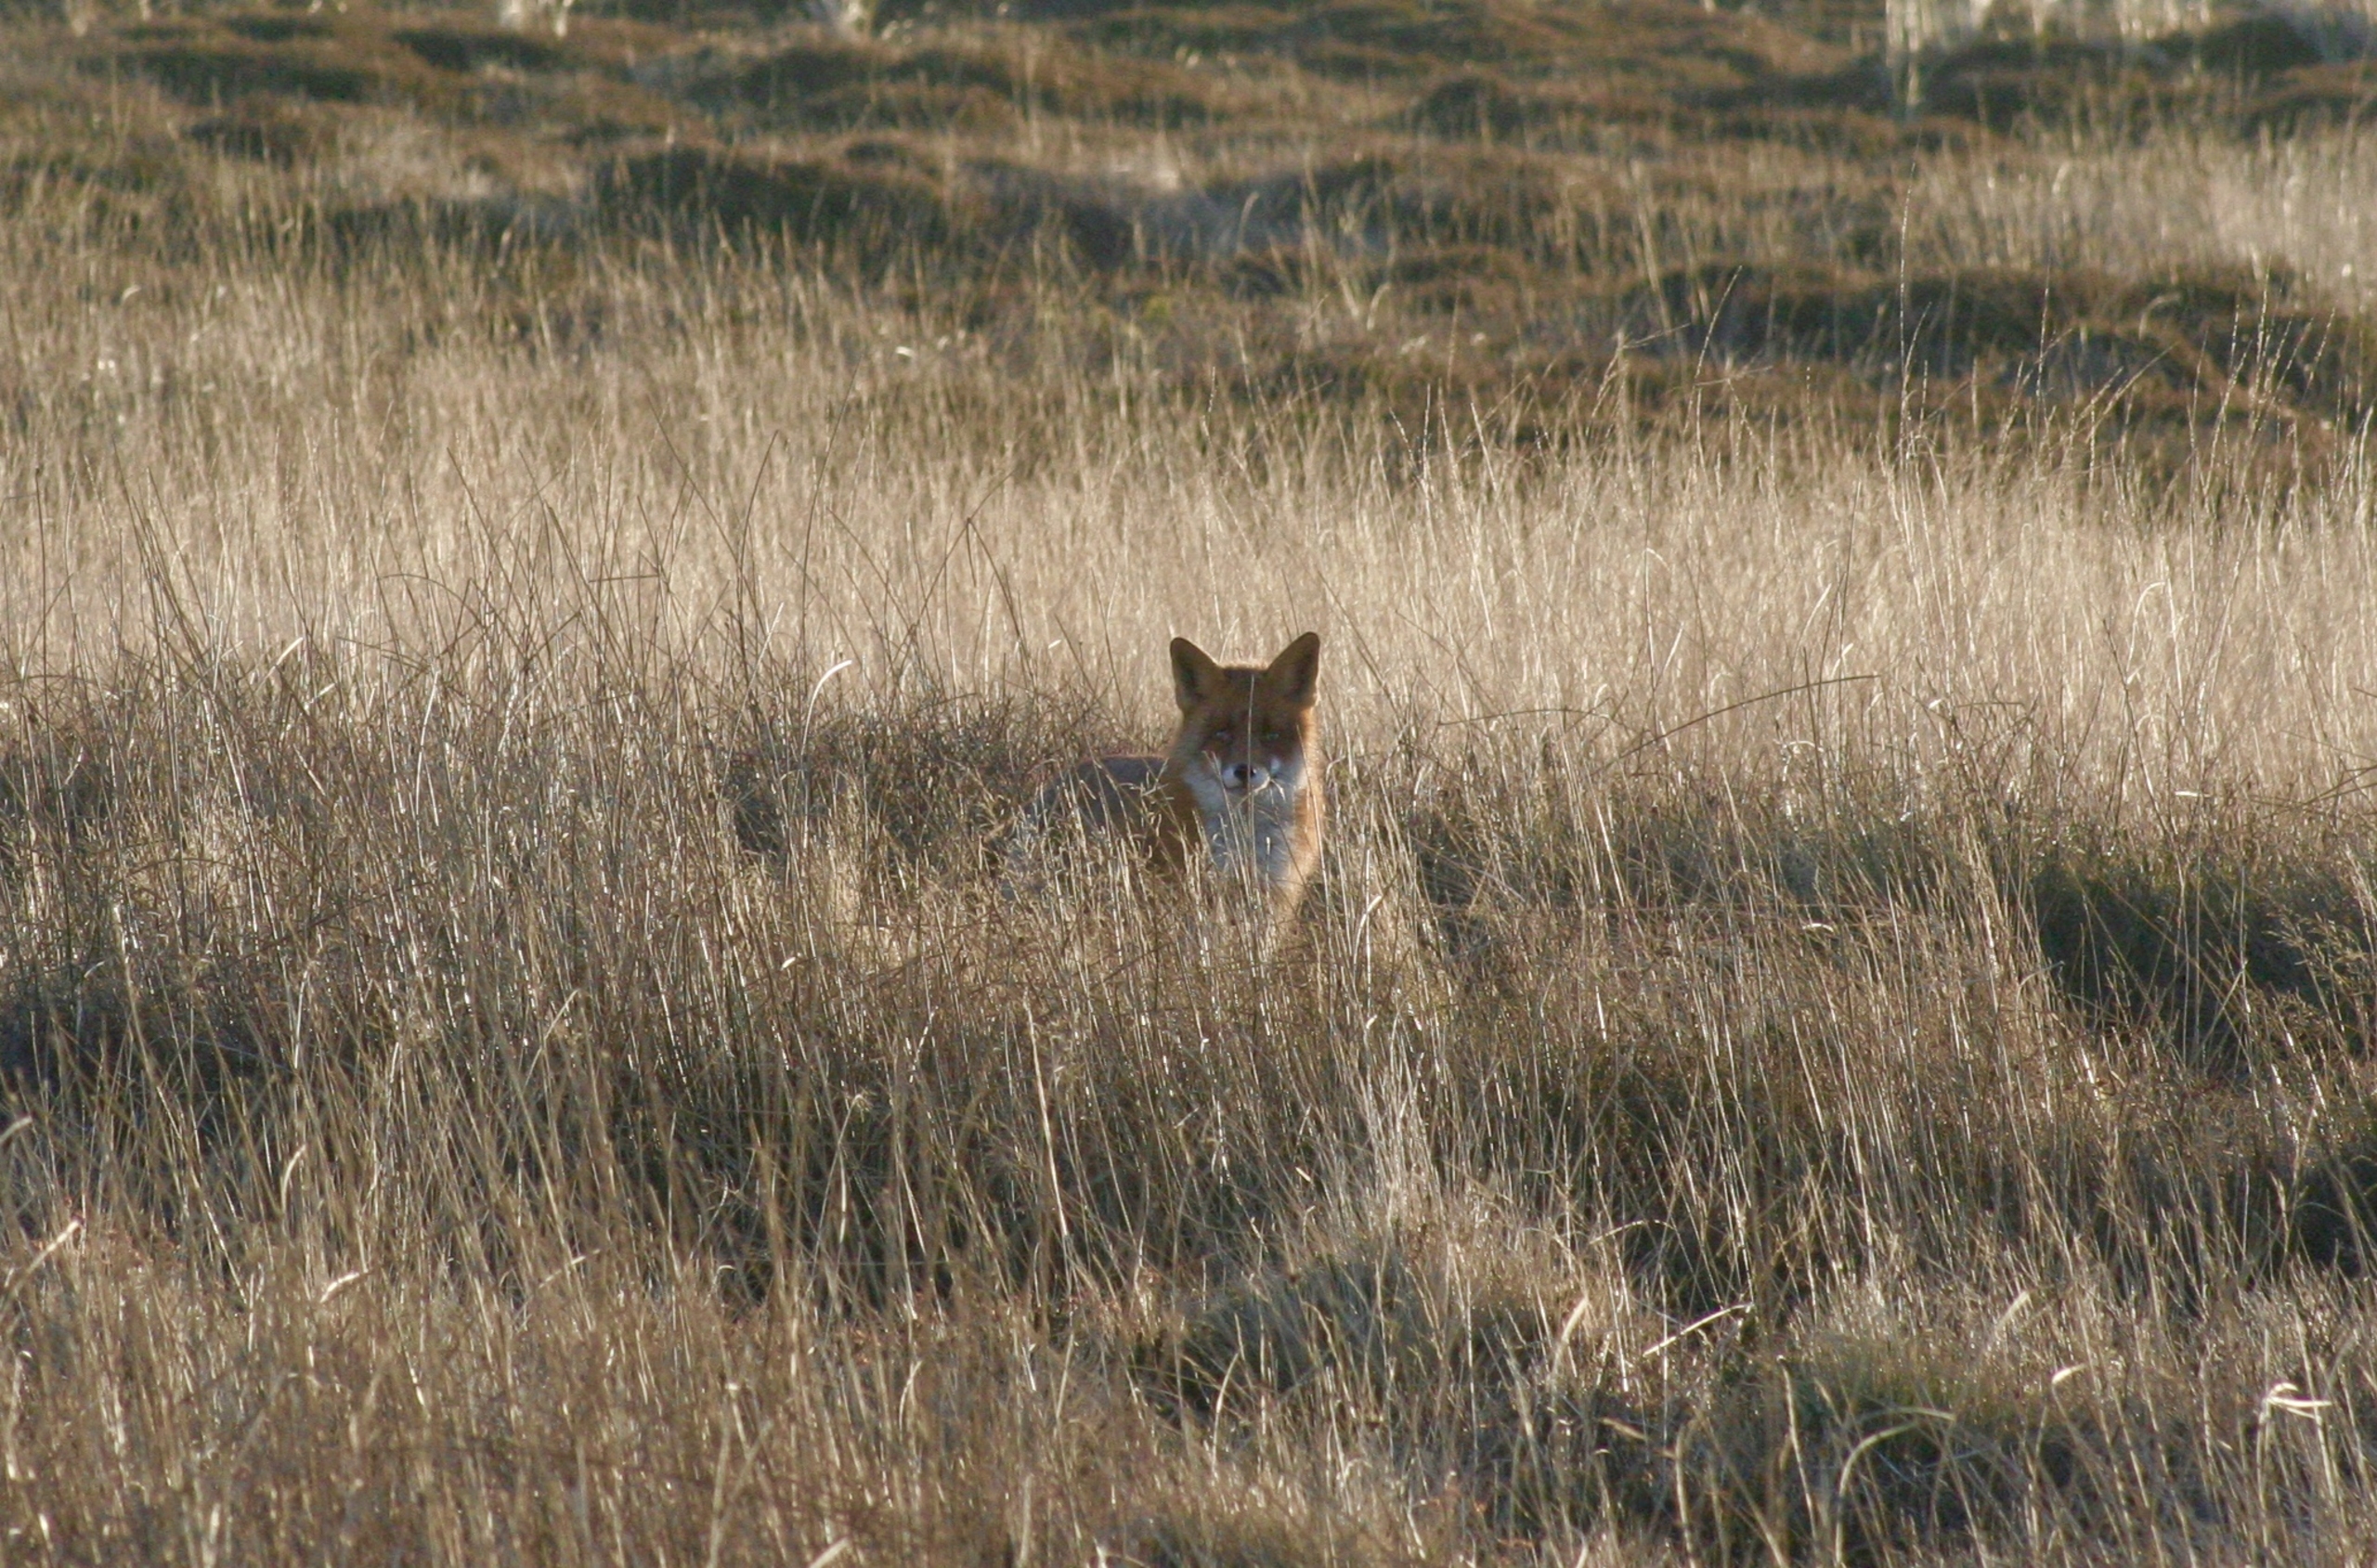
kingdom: Animalia
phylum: Chordata
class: Mammalia
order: Carnivora
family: Canidae
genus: Vulpes
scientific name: Vulpes vulpes
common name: Ræv
